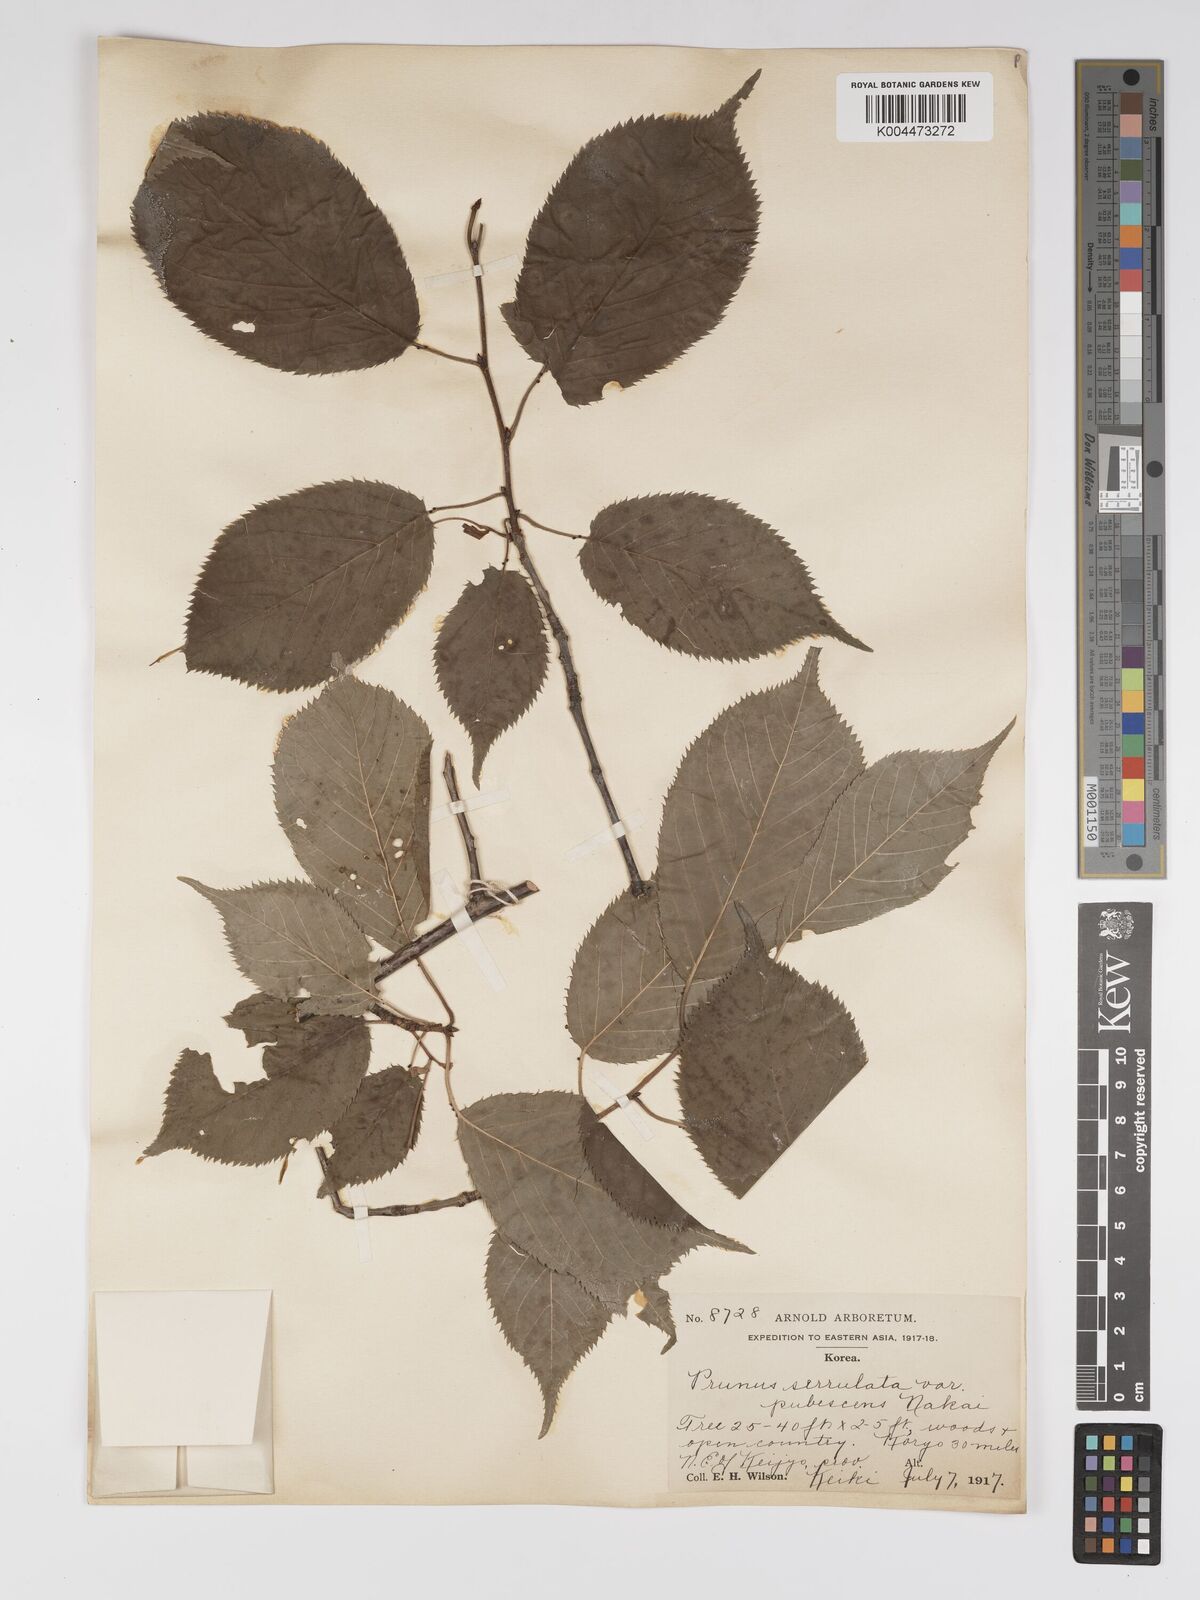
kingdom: Plantae
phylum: Tracheophyta
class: Magnoliopsida
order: Rosales
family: Rosaceae
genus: Prunus
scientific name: Prunus serrulata
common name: Japanese cherry
